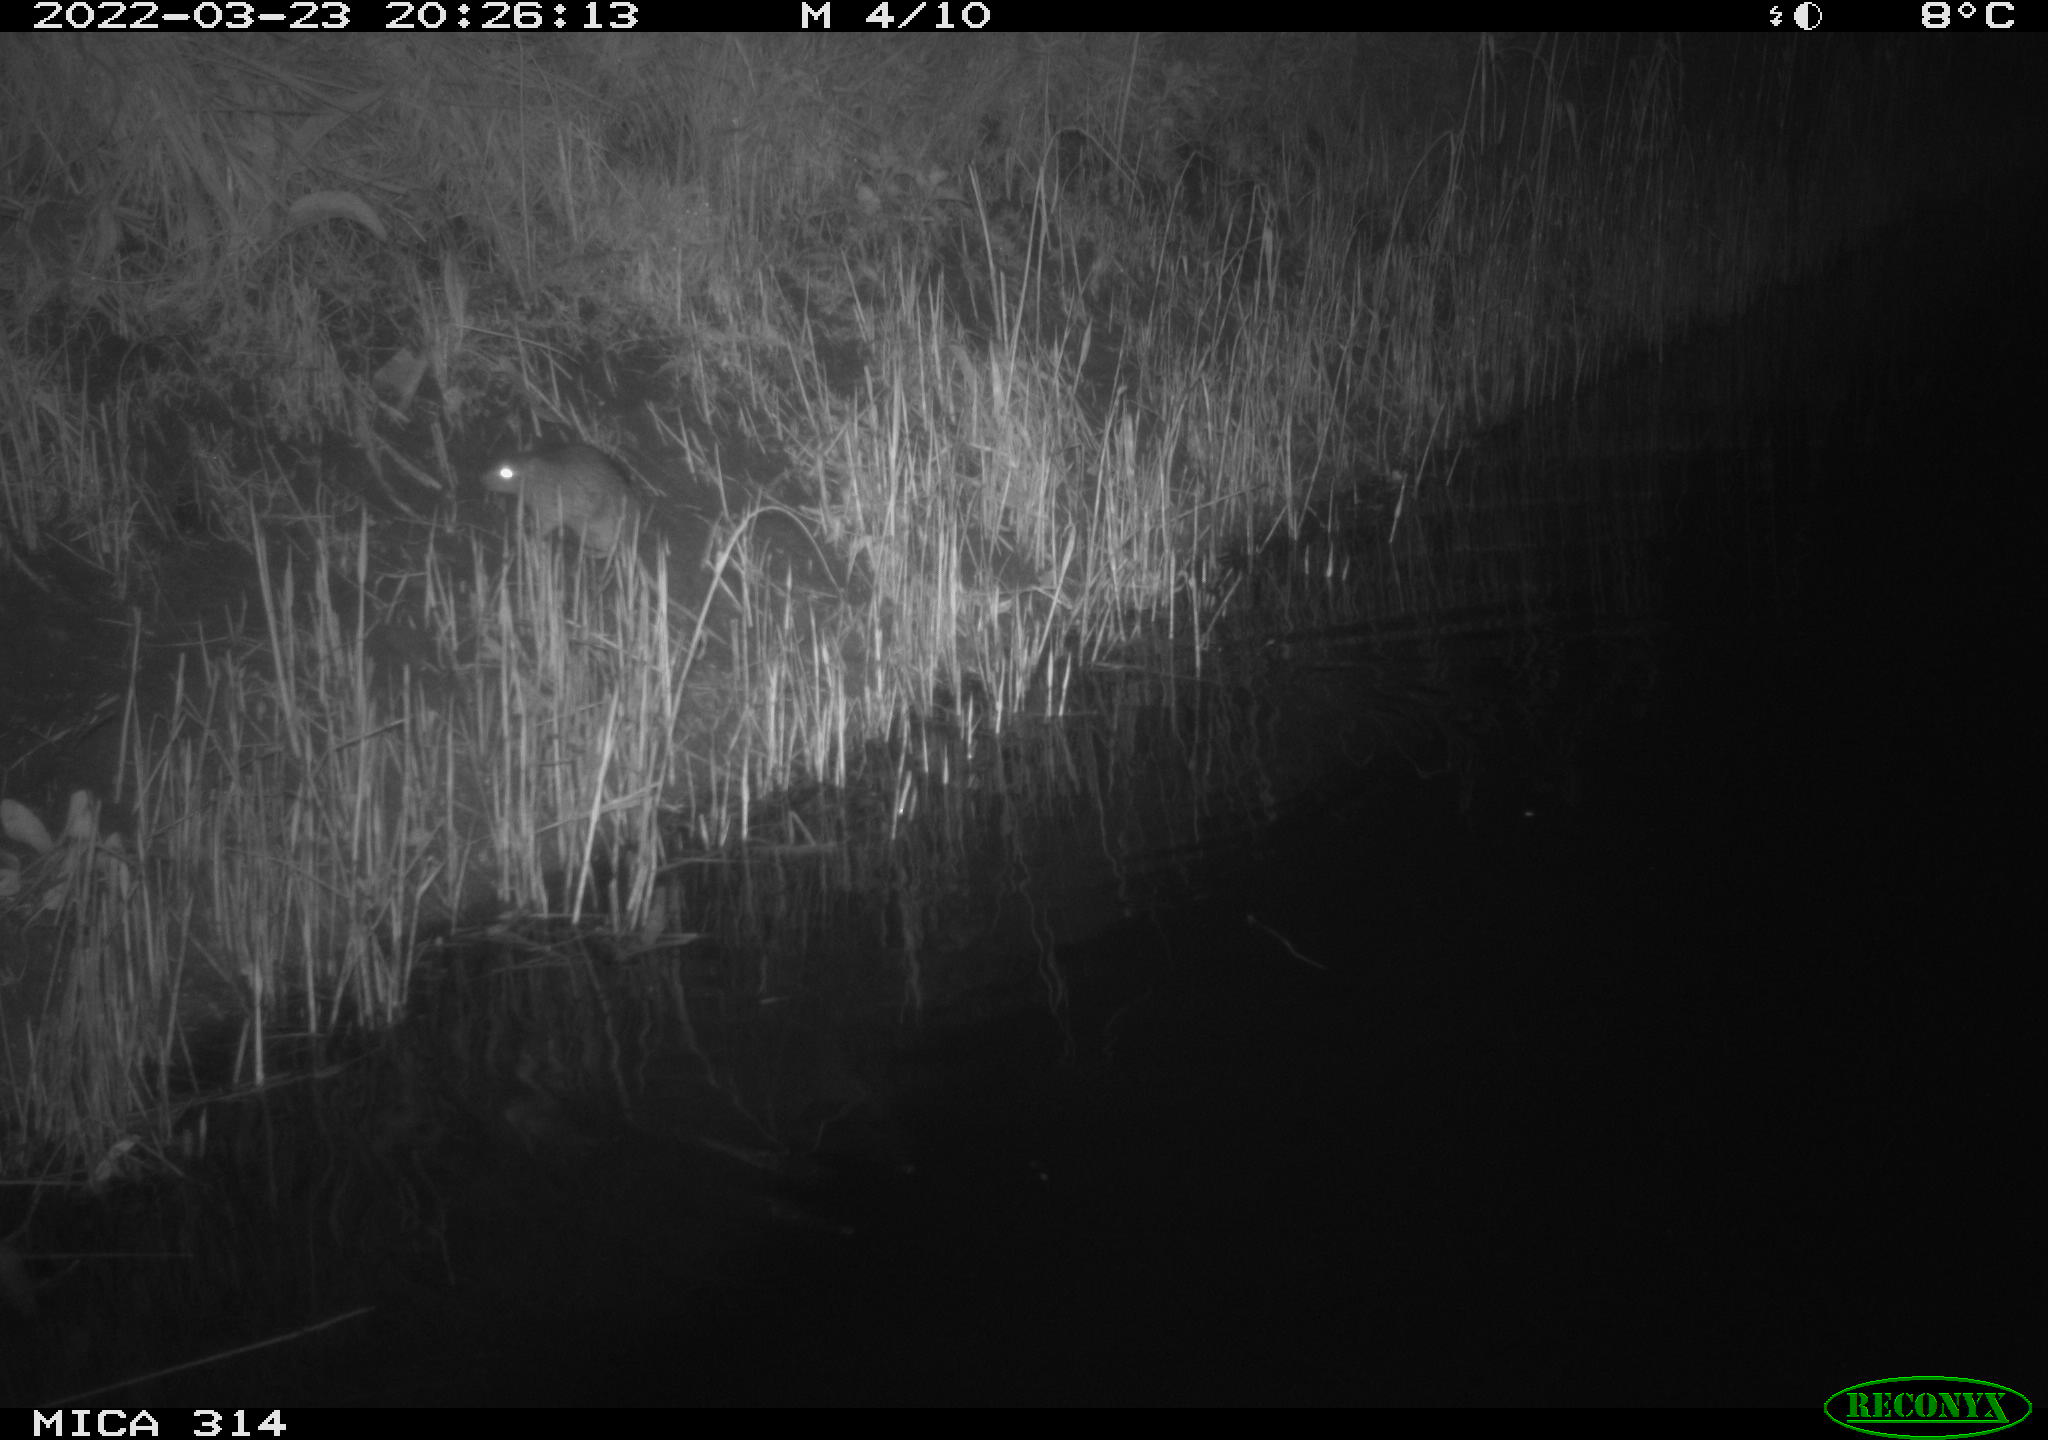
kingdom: Animalia
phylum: Chordata
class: Mammalia
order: Rodentia
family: Muridae
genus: Rattus
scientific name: Rattus norvegicus
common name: Brown rat
